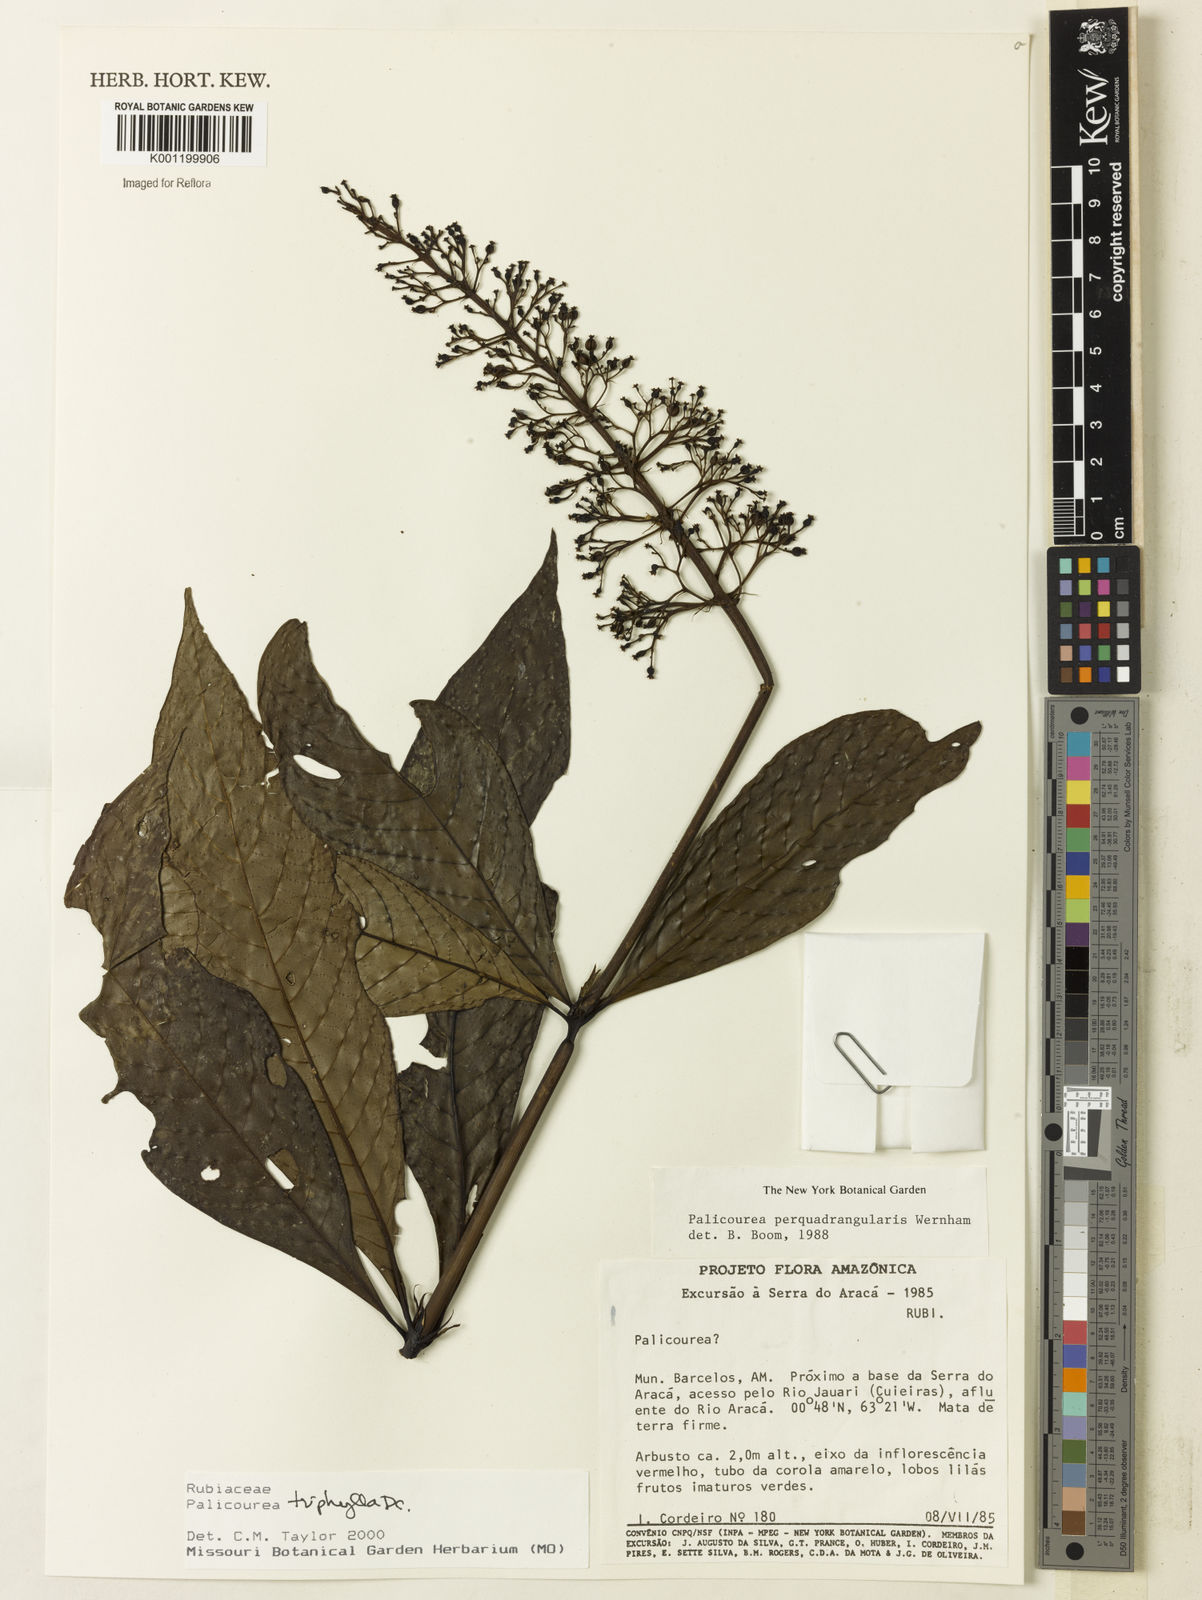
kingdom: Plantae
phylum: Tracheophyta
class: Magnoliopsida
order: Gentianales
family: Rubiaceae
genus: Palicourea
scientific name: Palicourea triphylla
